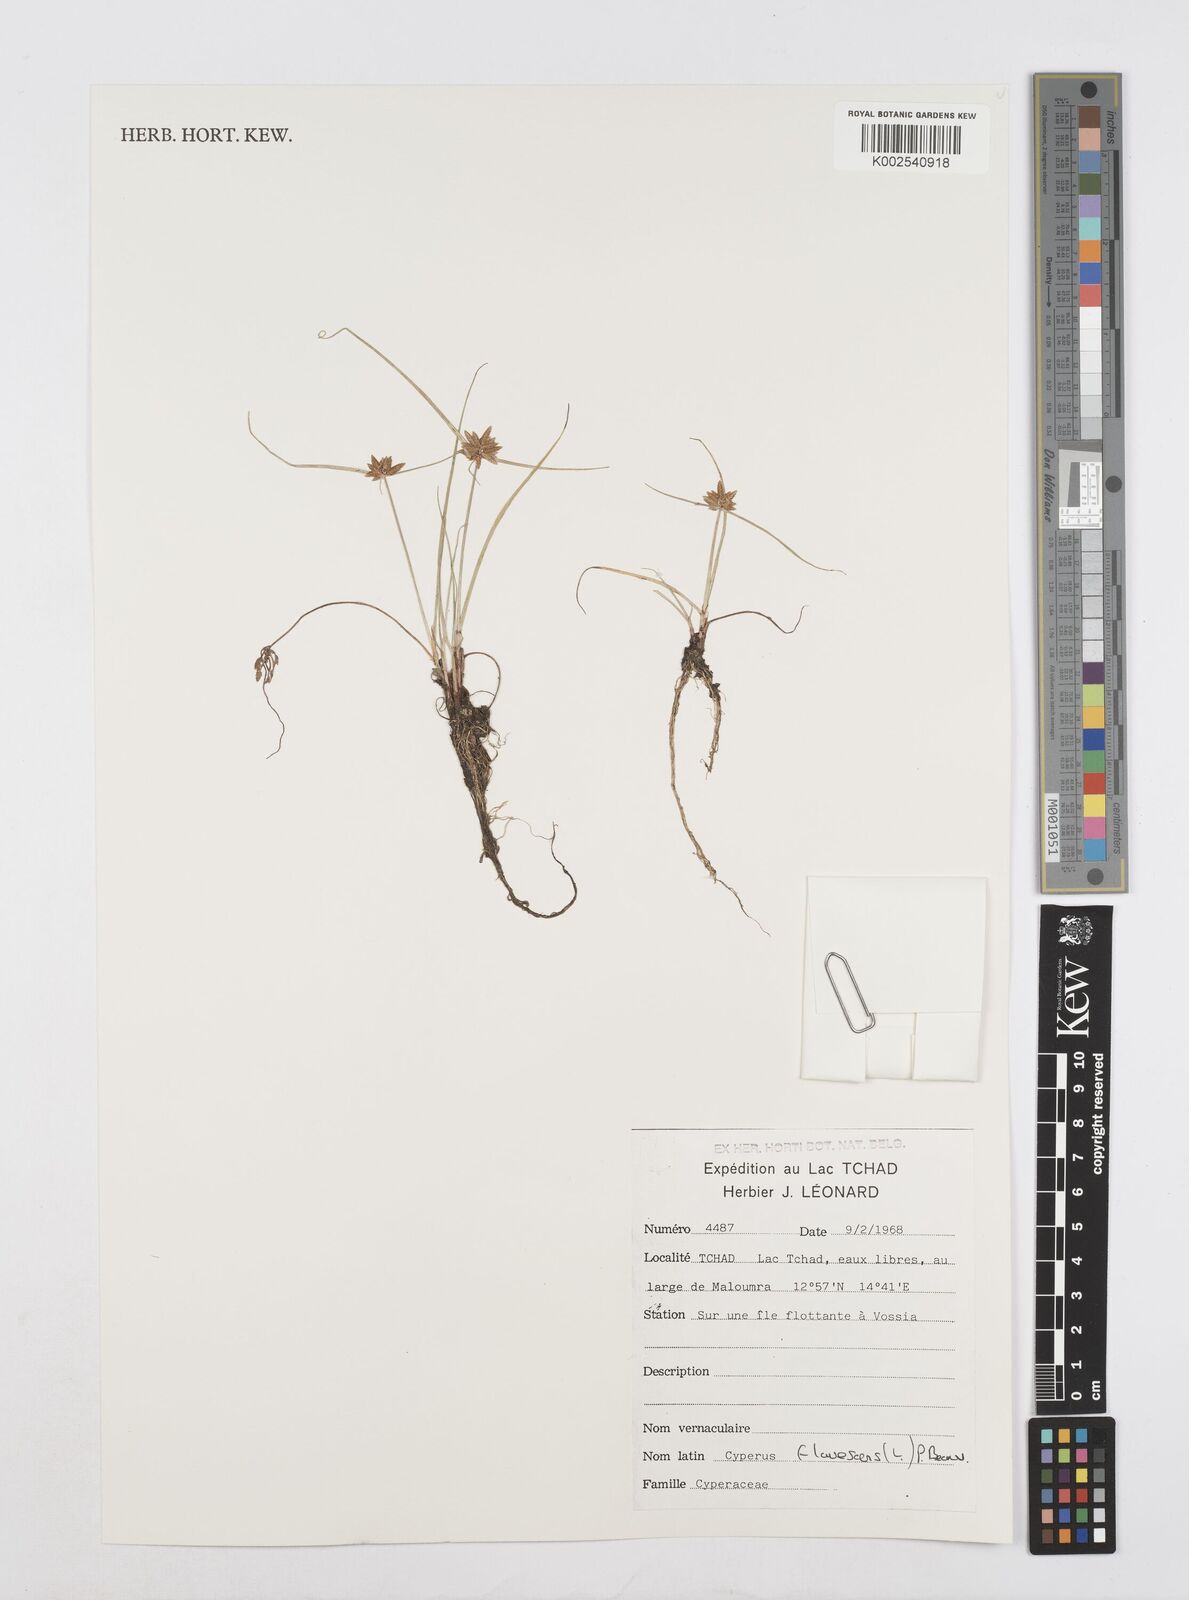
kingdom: Plantae
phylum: Tracheophyta
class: Liliopsida
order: Poales
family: Cyperaceae
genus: Cyperus
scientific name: Cyperus flavescens
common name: Yellow galingale
